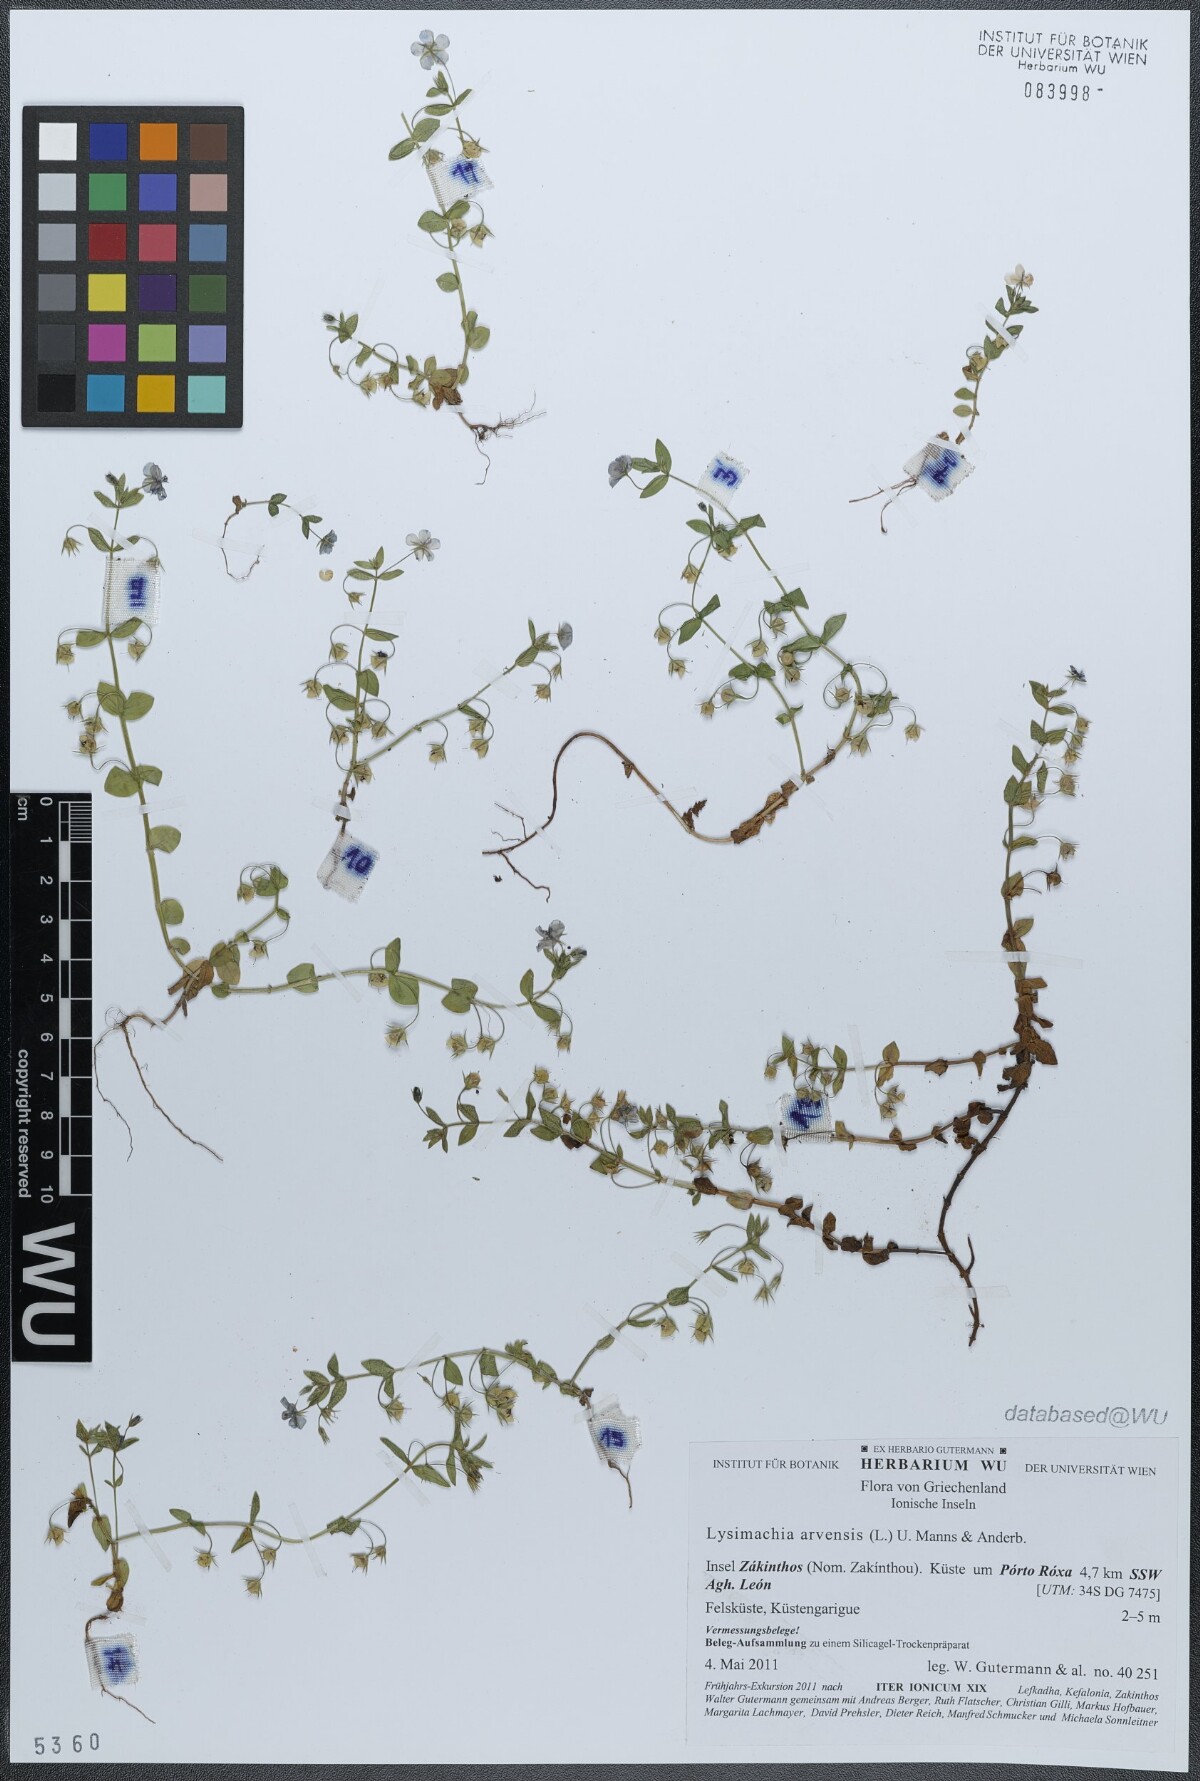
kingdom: Plantae
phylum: Tracheophyta
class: Magnoliopsida
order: Ericales
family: Primulaceae
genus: Lysimachia
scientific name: Lysimachia arvensis
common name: Scarlet pimpernel
